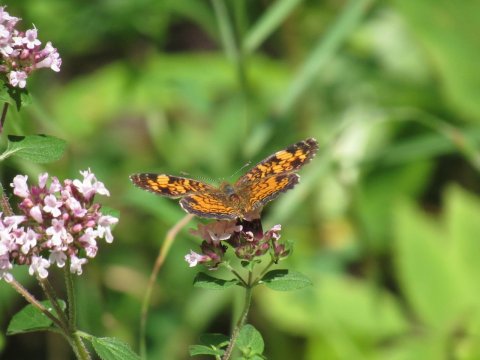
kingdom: Animalia
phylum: Arthropoda
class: Insecta
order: Lepidoptera
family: Nymphalidae
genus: Phyciodes
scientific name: Phyciodes
